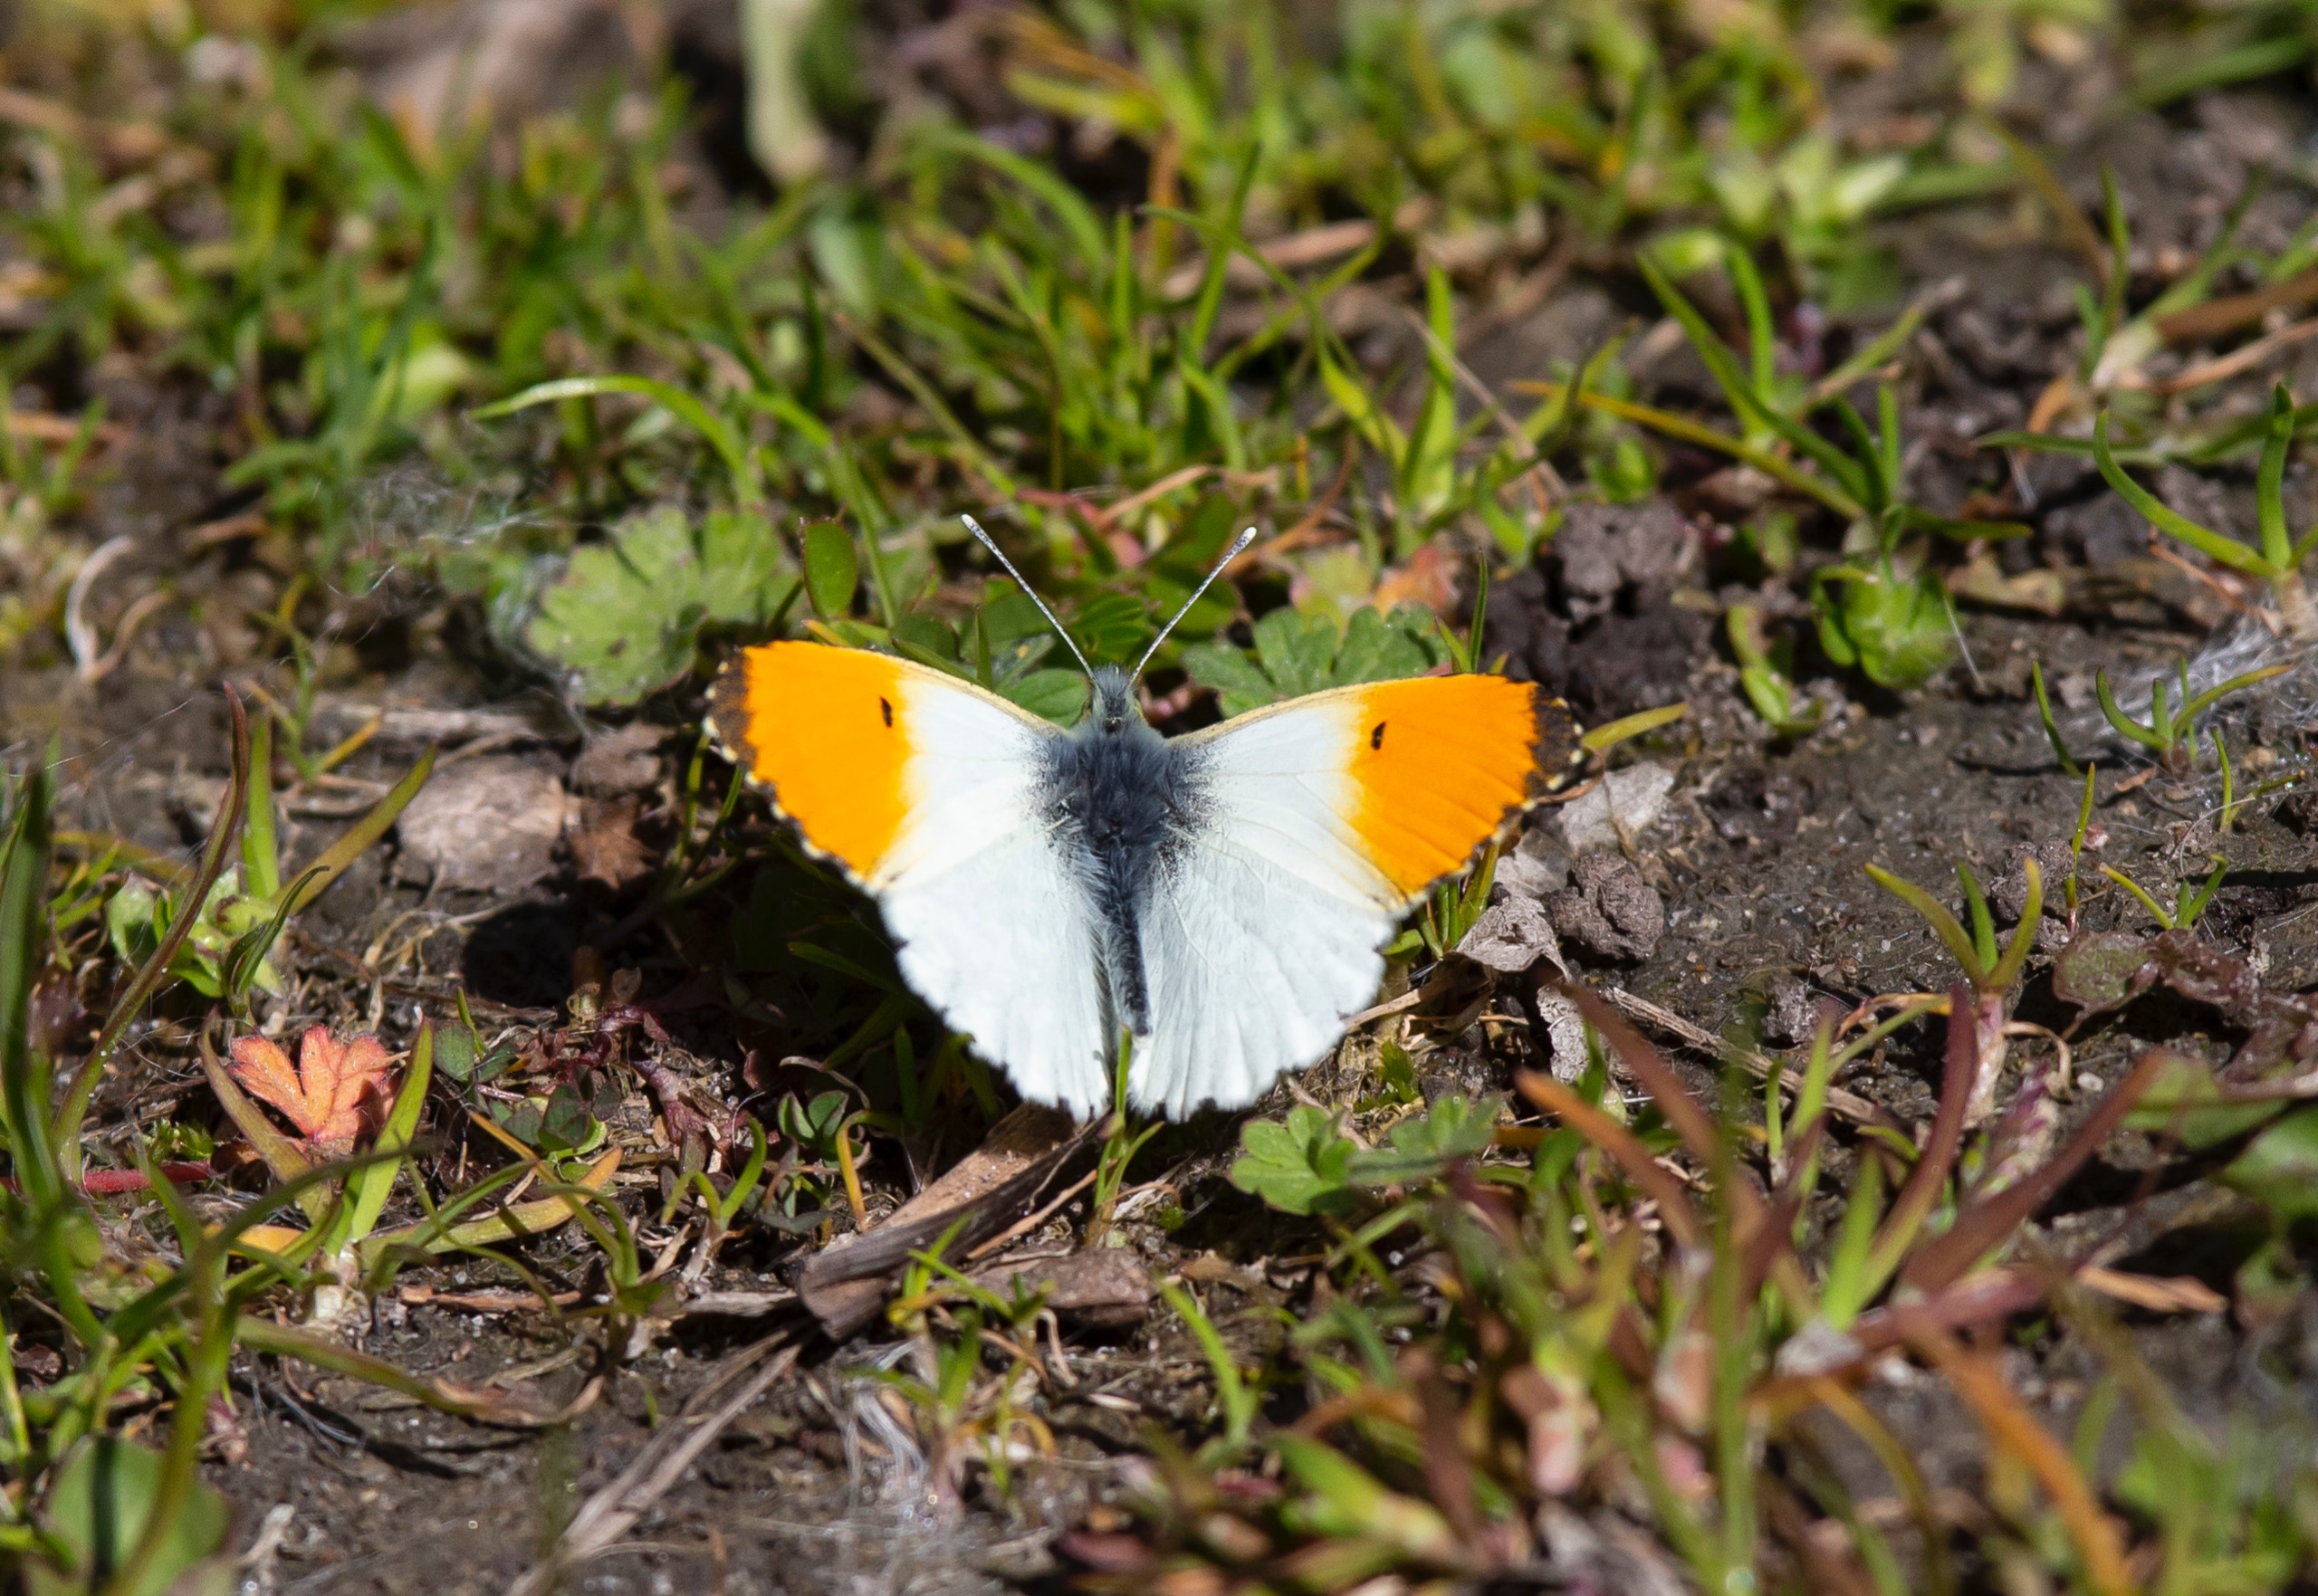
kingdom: Animalia
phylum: Arthropoda
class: Insecta
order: Lepidoptera
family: Pieridae
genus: Anthocharis
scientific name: Anthocharis cardamines
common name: Aurora
